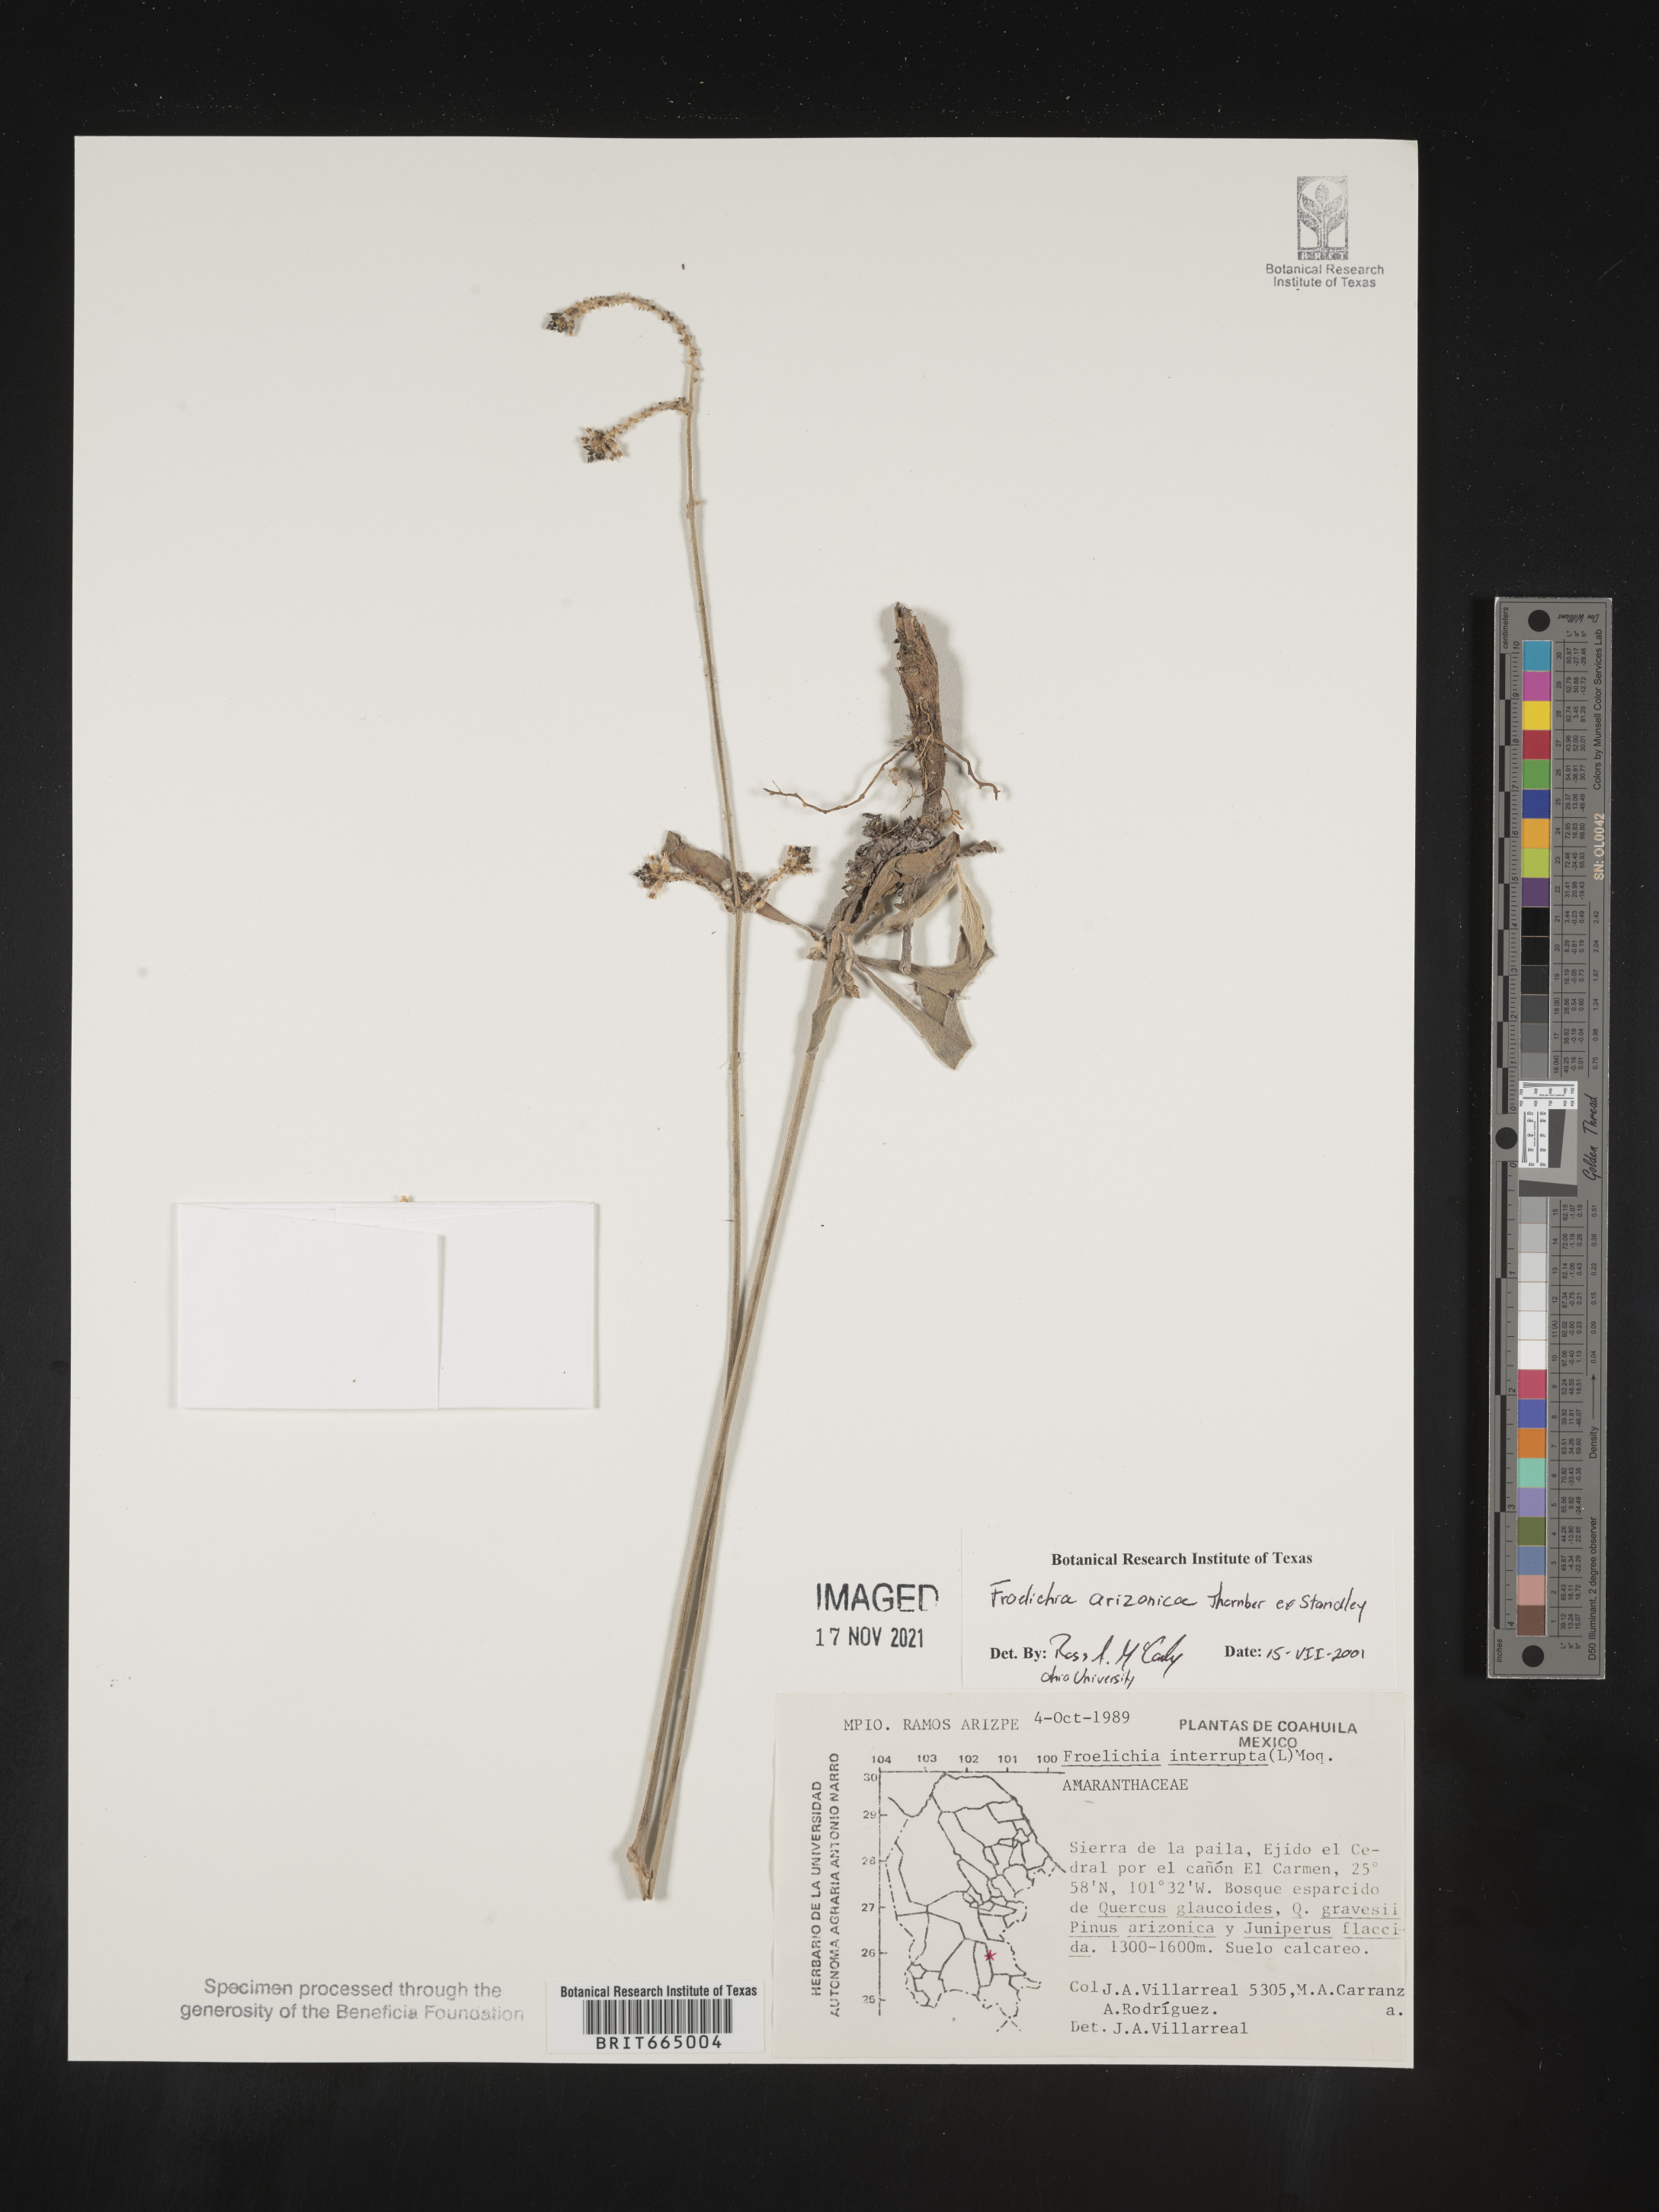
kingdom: Plantae
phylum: Tracheophyta
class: Magnoliopsida
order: Caryophyllales
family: Amaranthaceae
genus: Froelichia
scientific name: Froelichia
